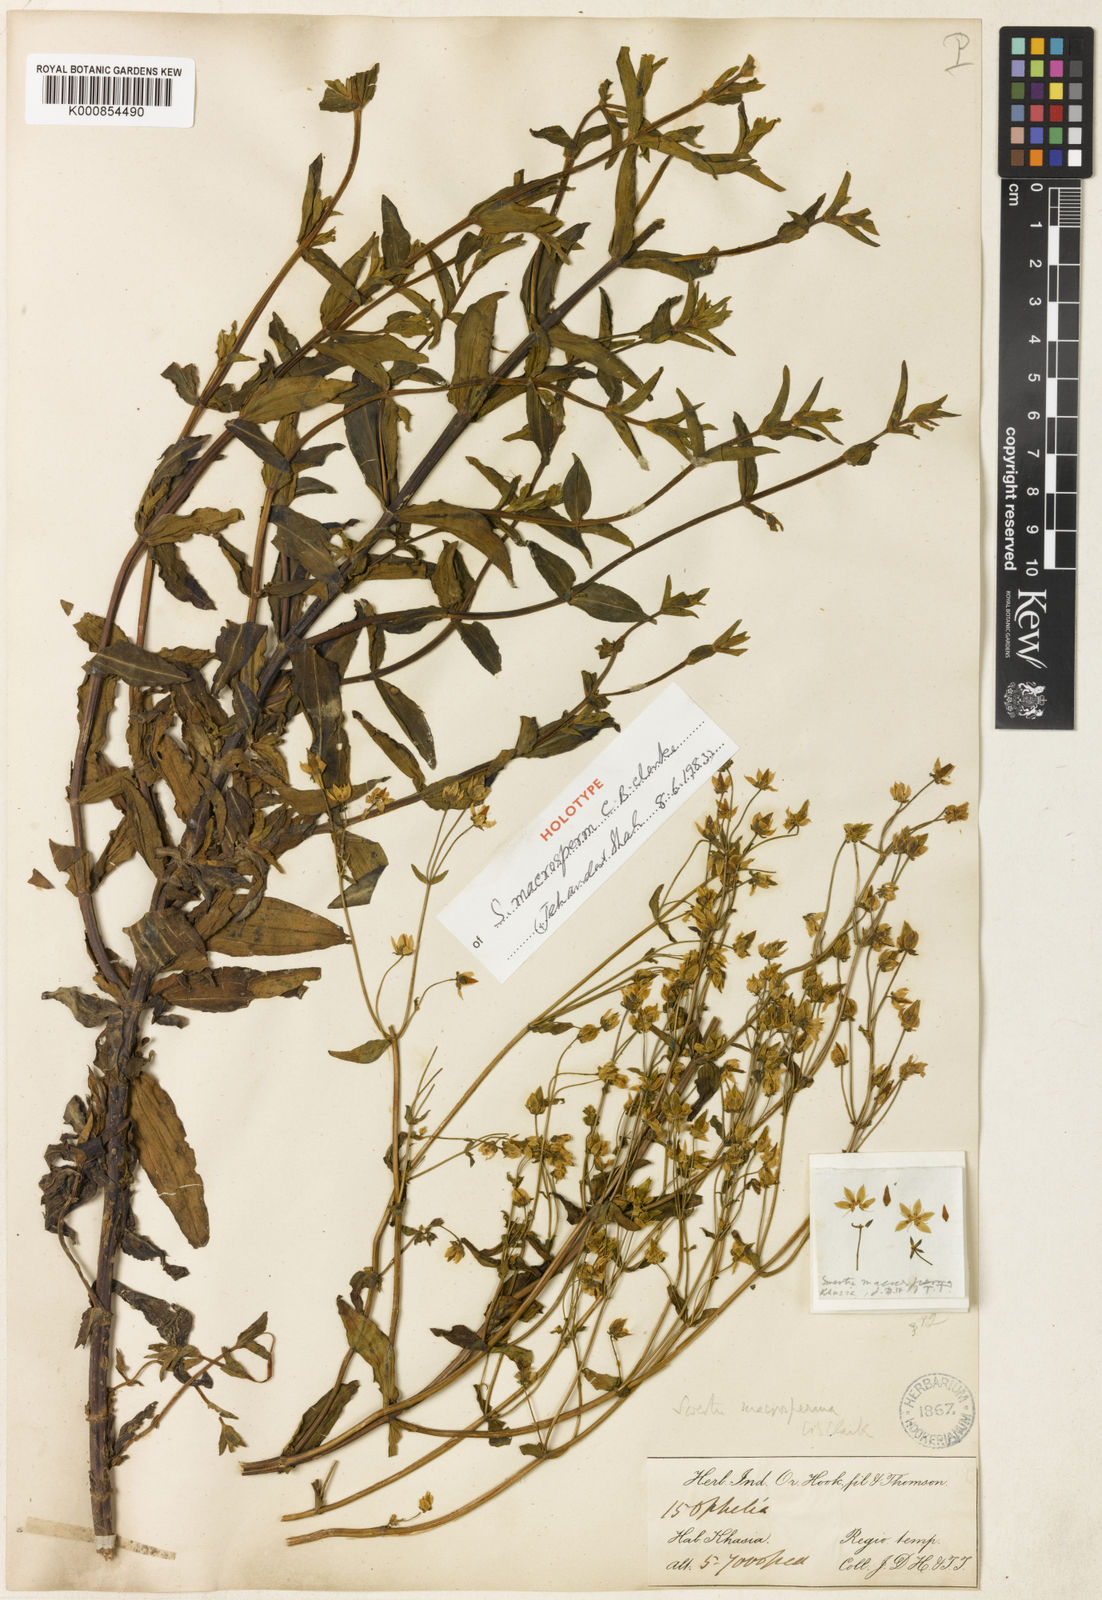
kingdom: Plantae
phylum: Tracheophyta
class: Magnoliopsida
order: Gentianales
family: Gentianaceae
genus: Swertia
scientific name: Swertia macrosperma
